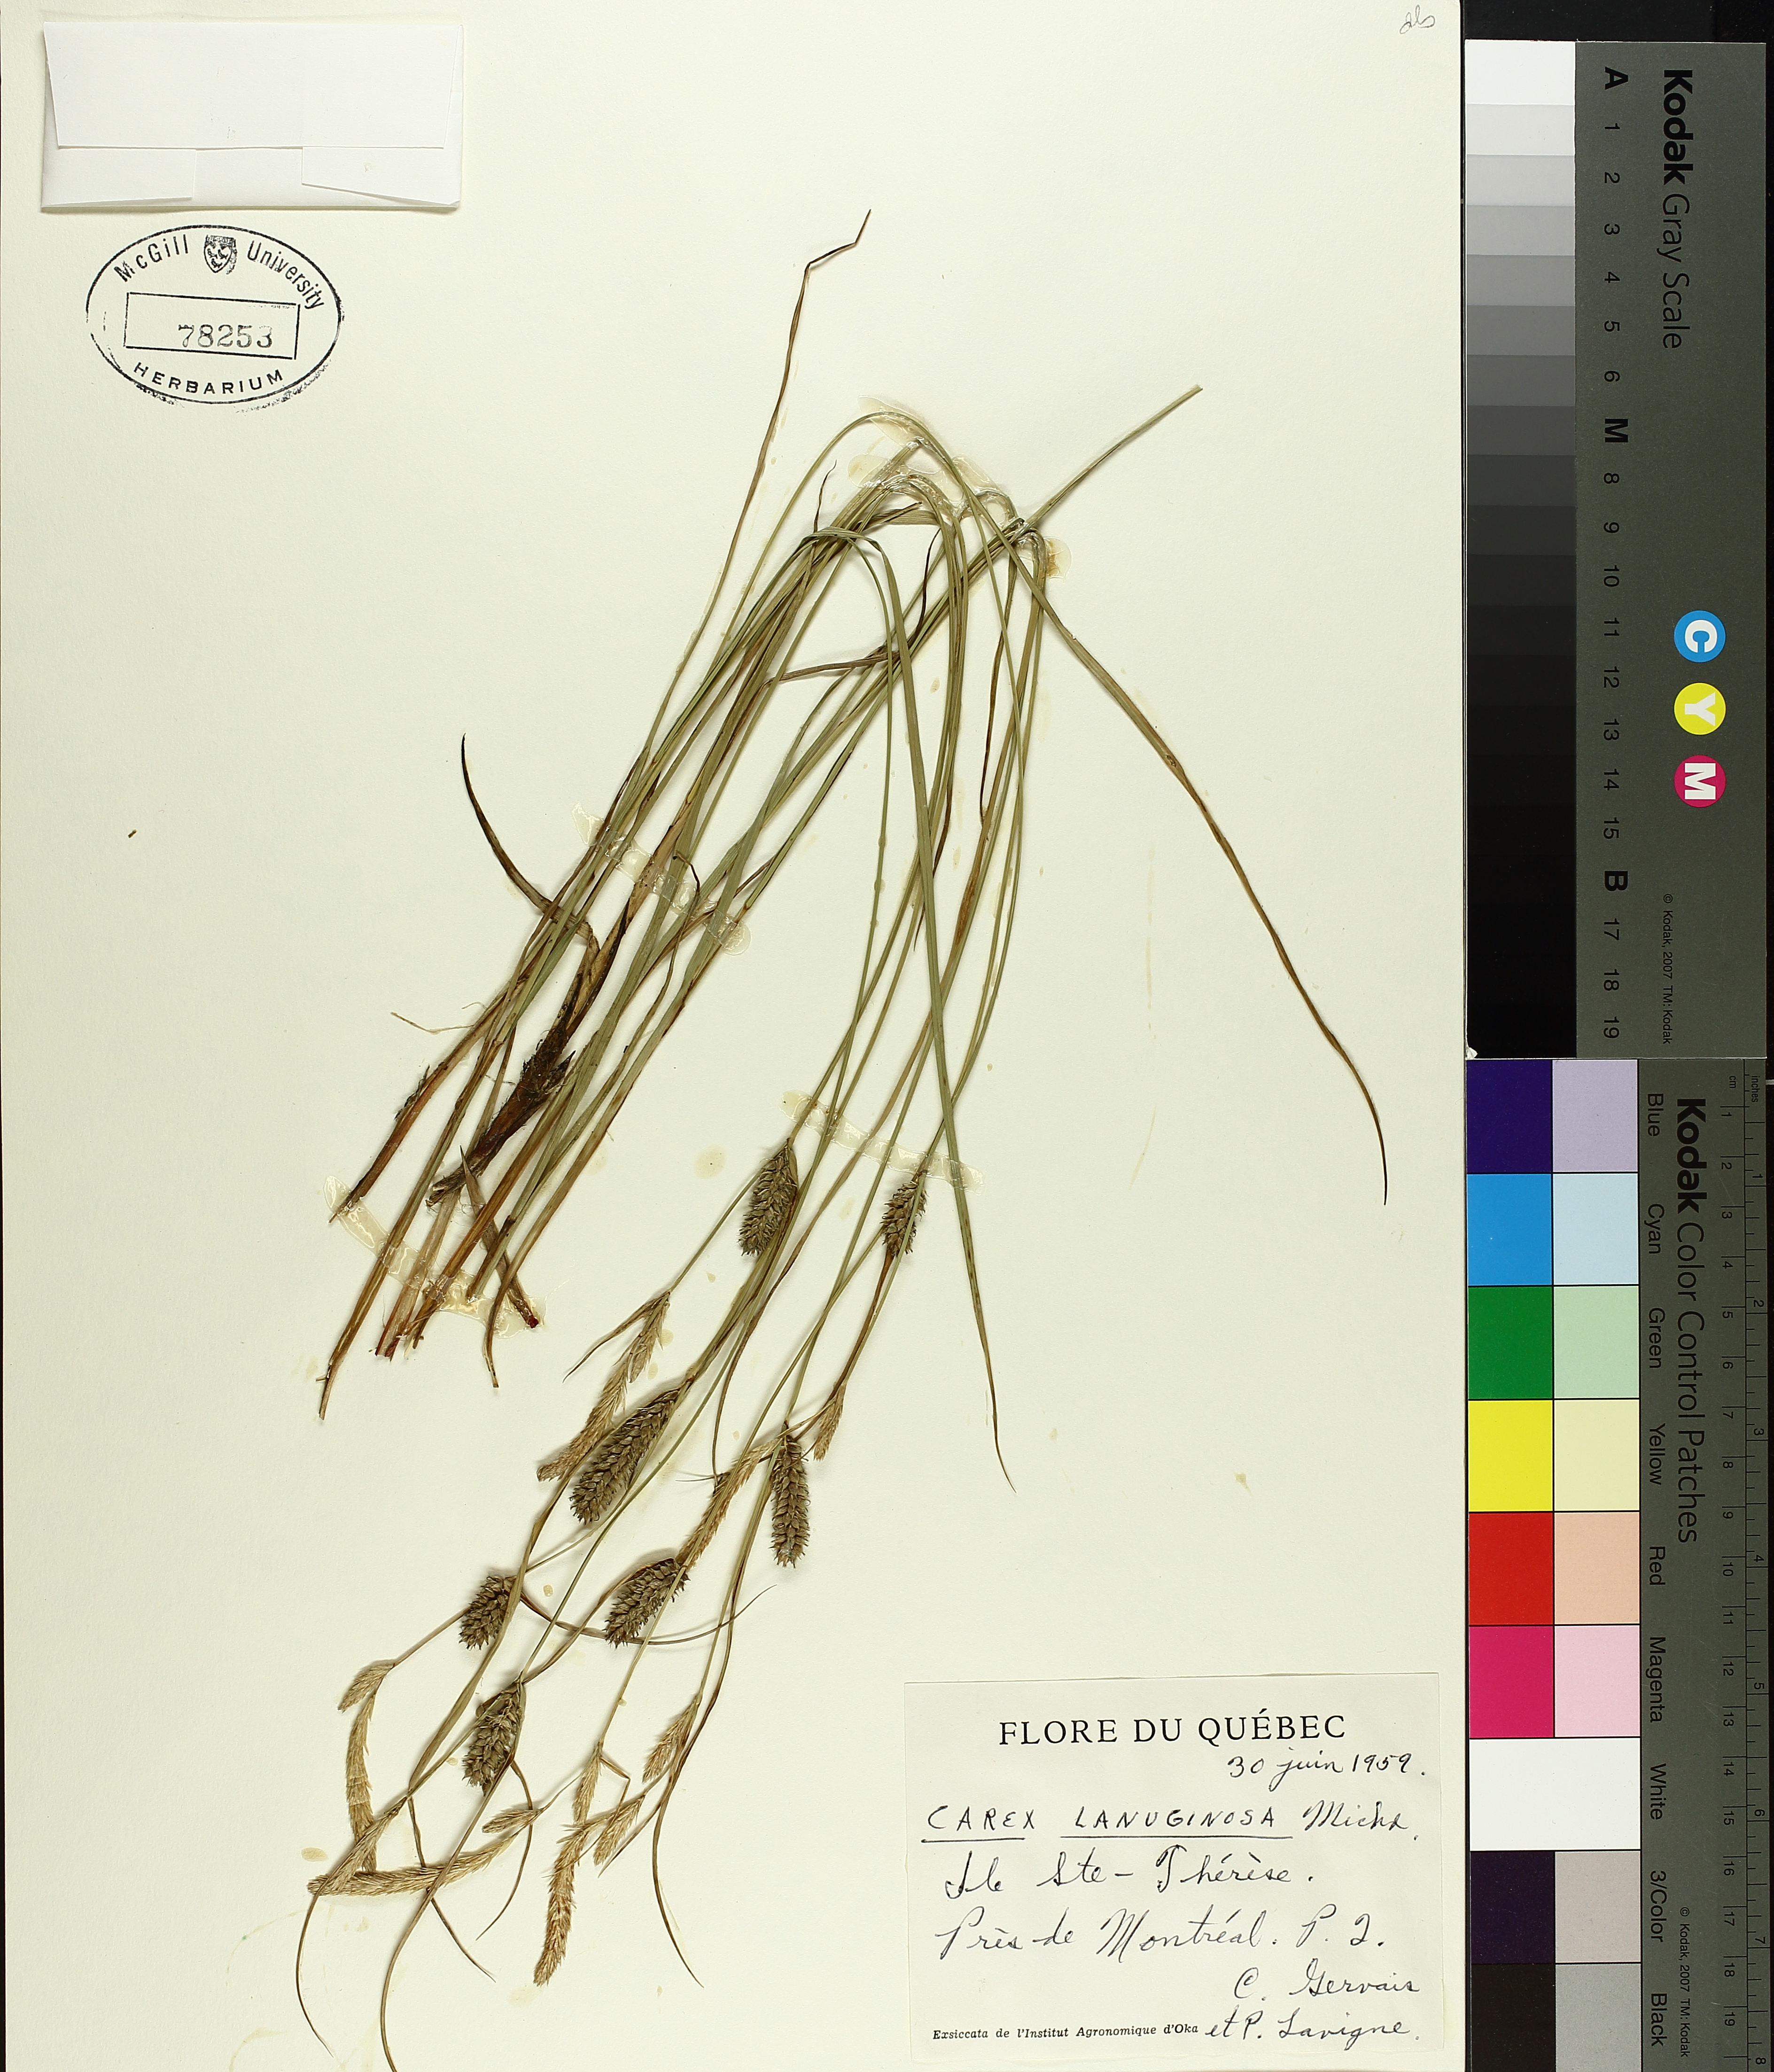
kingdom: Plantae
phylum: Tracheophyta
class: Liliopsida
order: Poales
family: Cyperaceae
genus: Carex
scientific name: Carex pellita
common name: Woolly sedge
